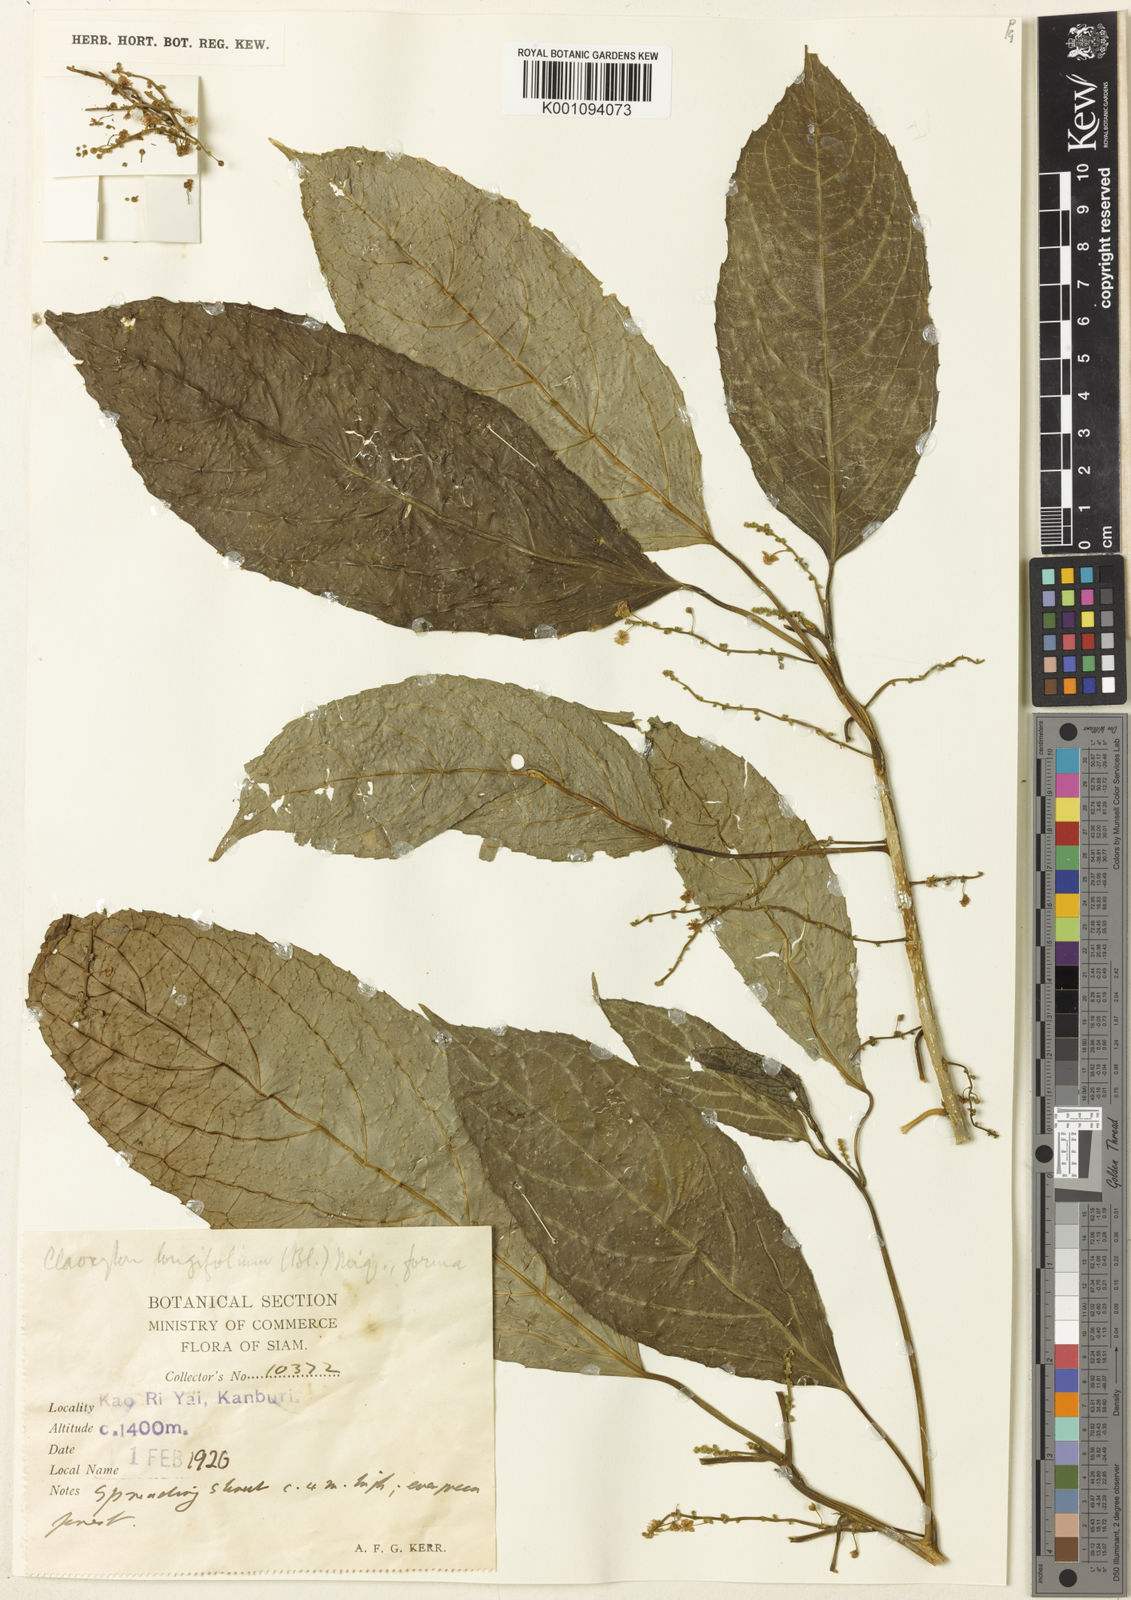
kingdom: Plantae
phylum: Tracheophyta
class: Magnoliopsida
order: Malpighiales
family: Euphorbiaceae
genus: Claoxylon
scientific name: Claoxylon longifolium
